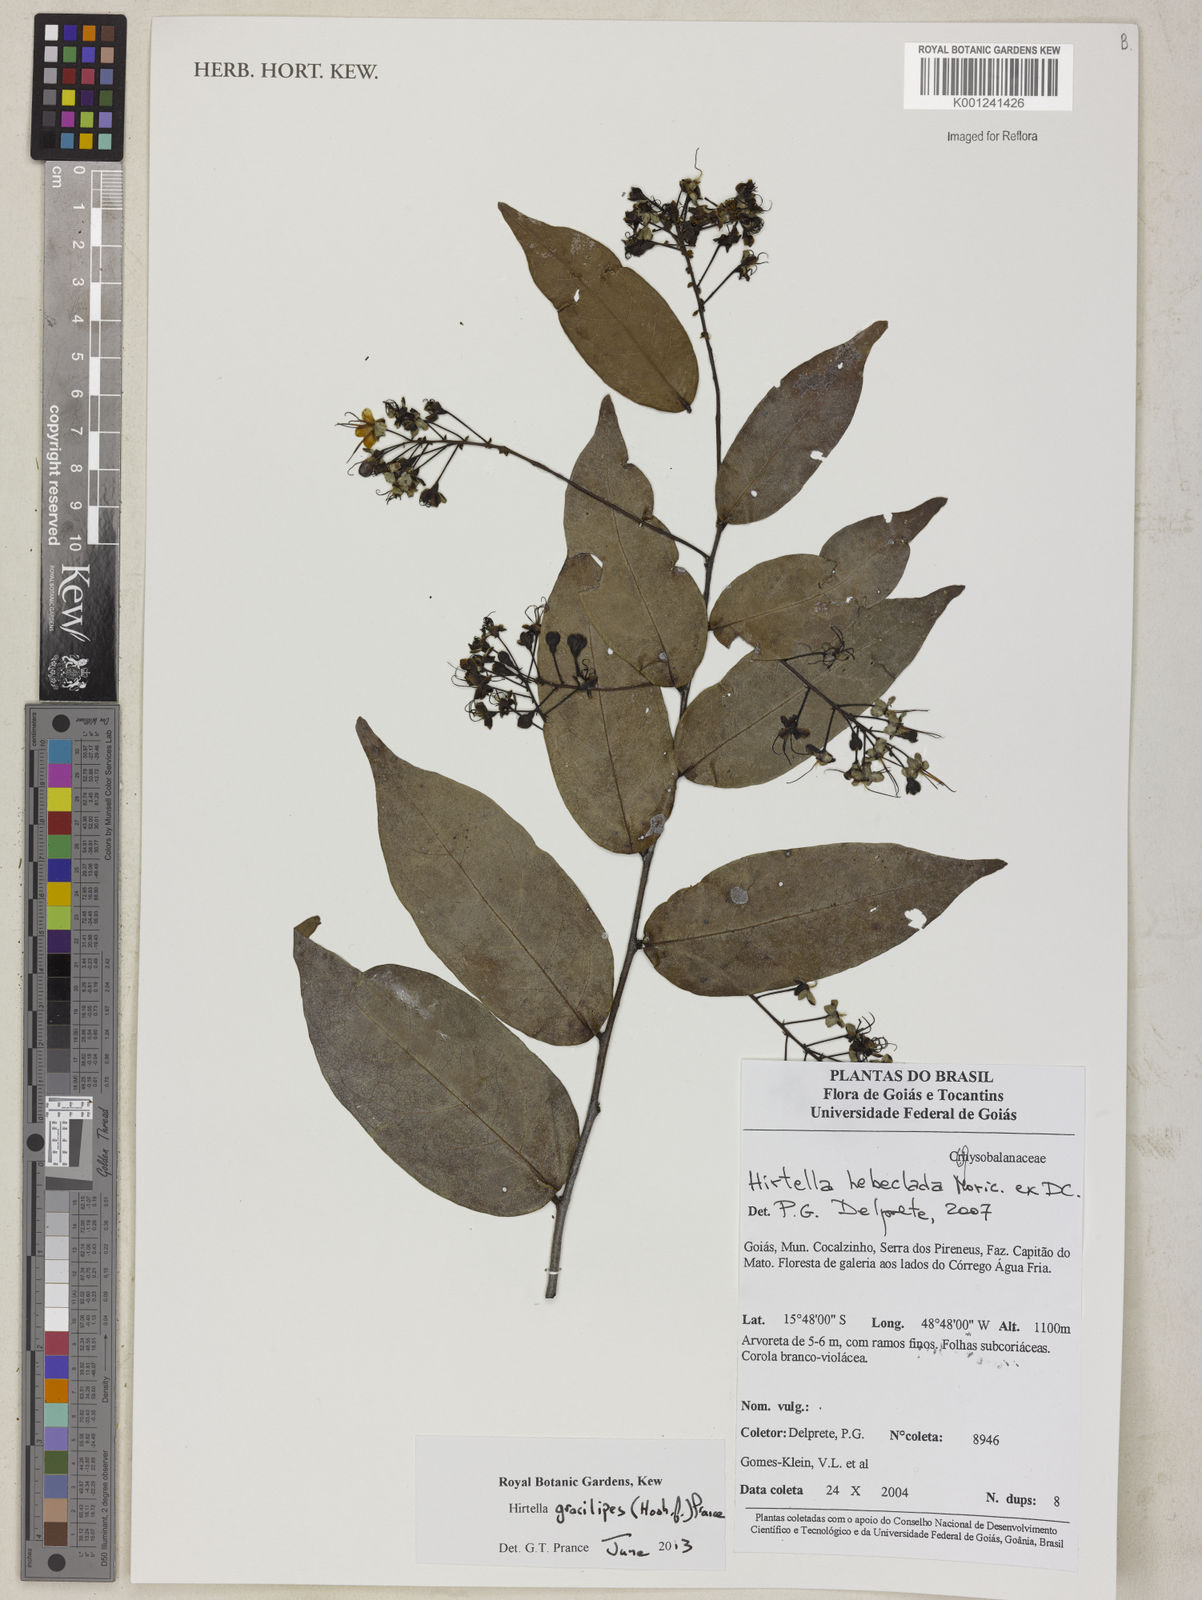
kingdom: Plantae
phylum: Tracheophyta
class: Magnoliopsida
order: Malpighiales
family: Chrysobalanaceae
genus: Hirtella
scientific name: Hirtella gracilipes
